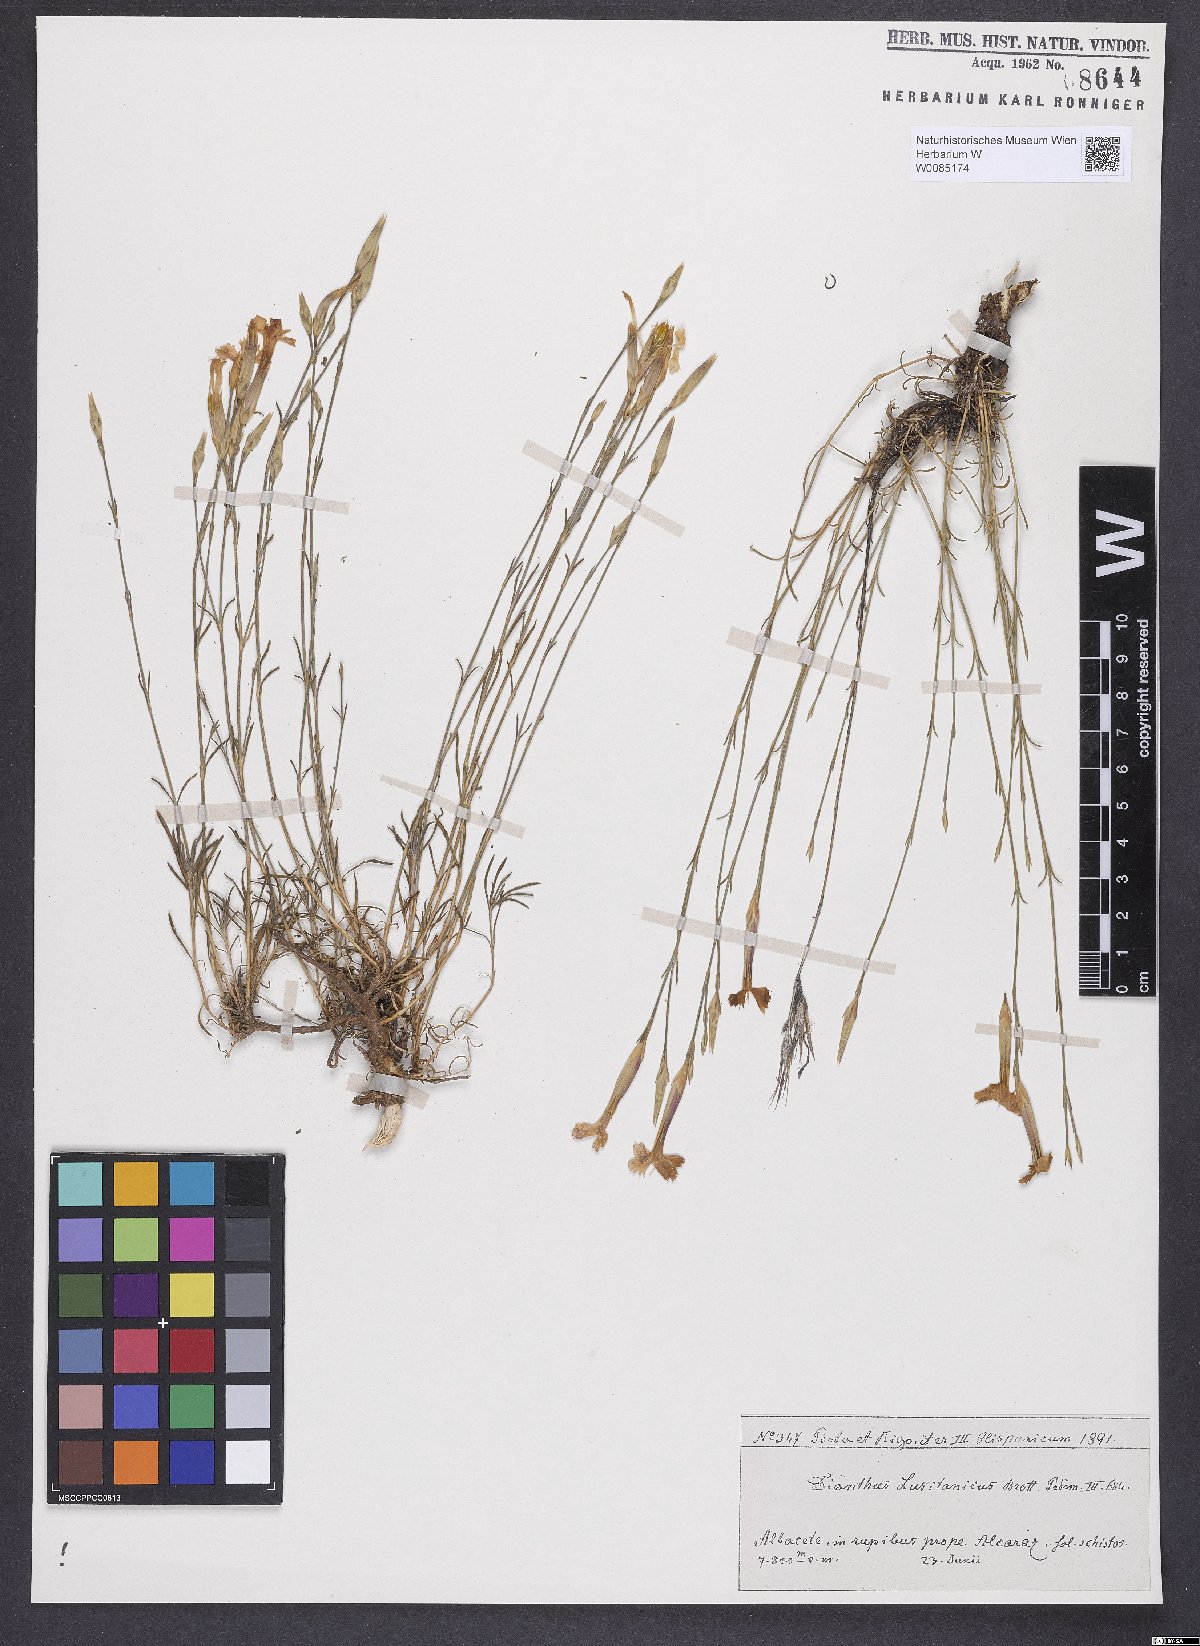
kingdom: Plantae
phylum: Tracheophyta
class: Magnoliopsida
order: Caryophyllales
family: Caryophyllaceae
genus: Dianthus
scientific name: Dianthus lusitanus
